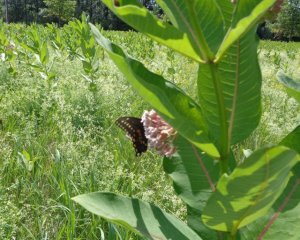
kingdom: Animalia
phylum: Arthropoda
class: Insecta
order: Lepidoptera
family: Papilionidae
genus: Papilio
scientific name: Papilio polyxenes
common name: Black Swallowtail
